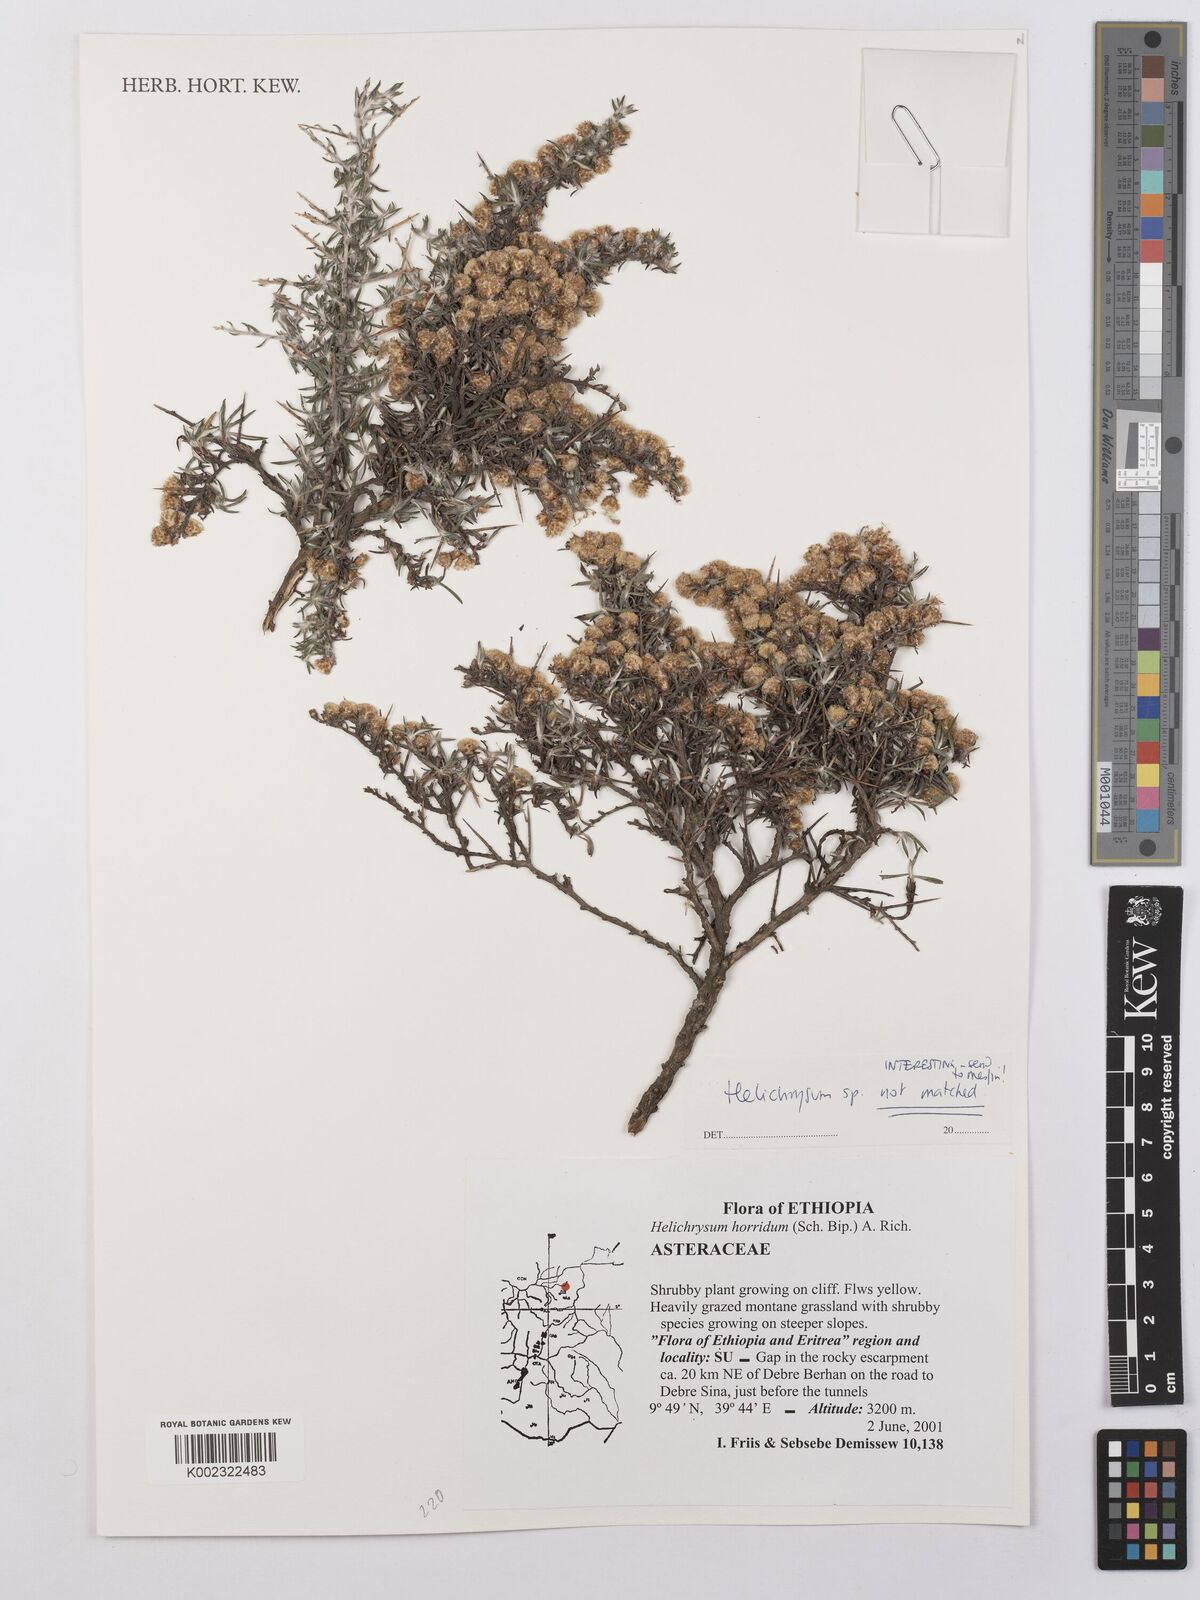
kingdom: Plantae
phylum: Tracheophyta
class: Magnoliopsida
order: Asterales
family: Asteraceae
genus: Helichrysum
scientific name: Helichrysum
